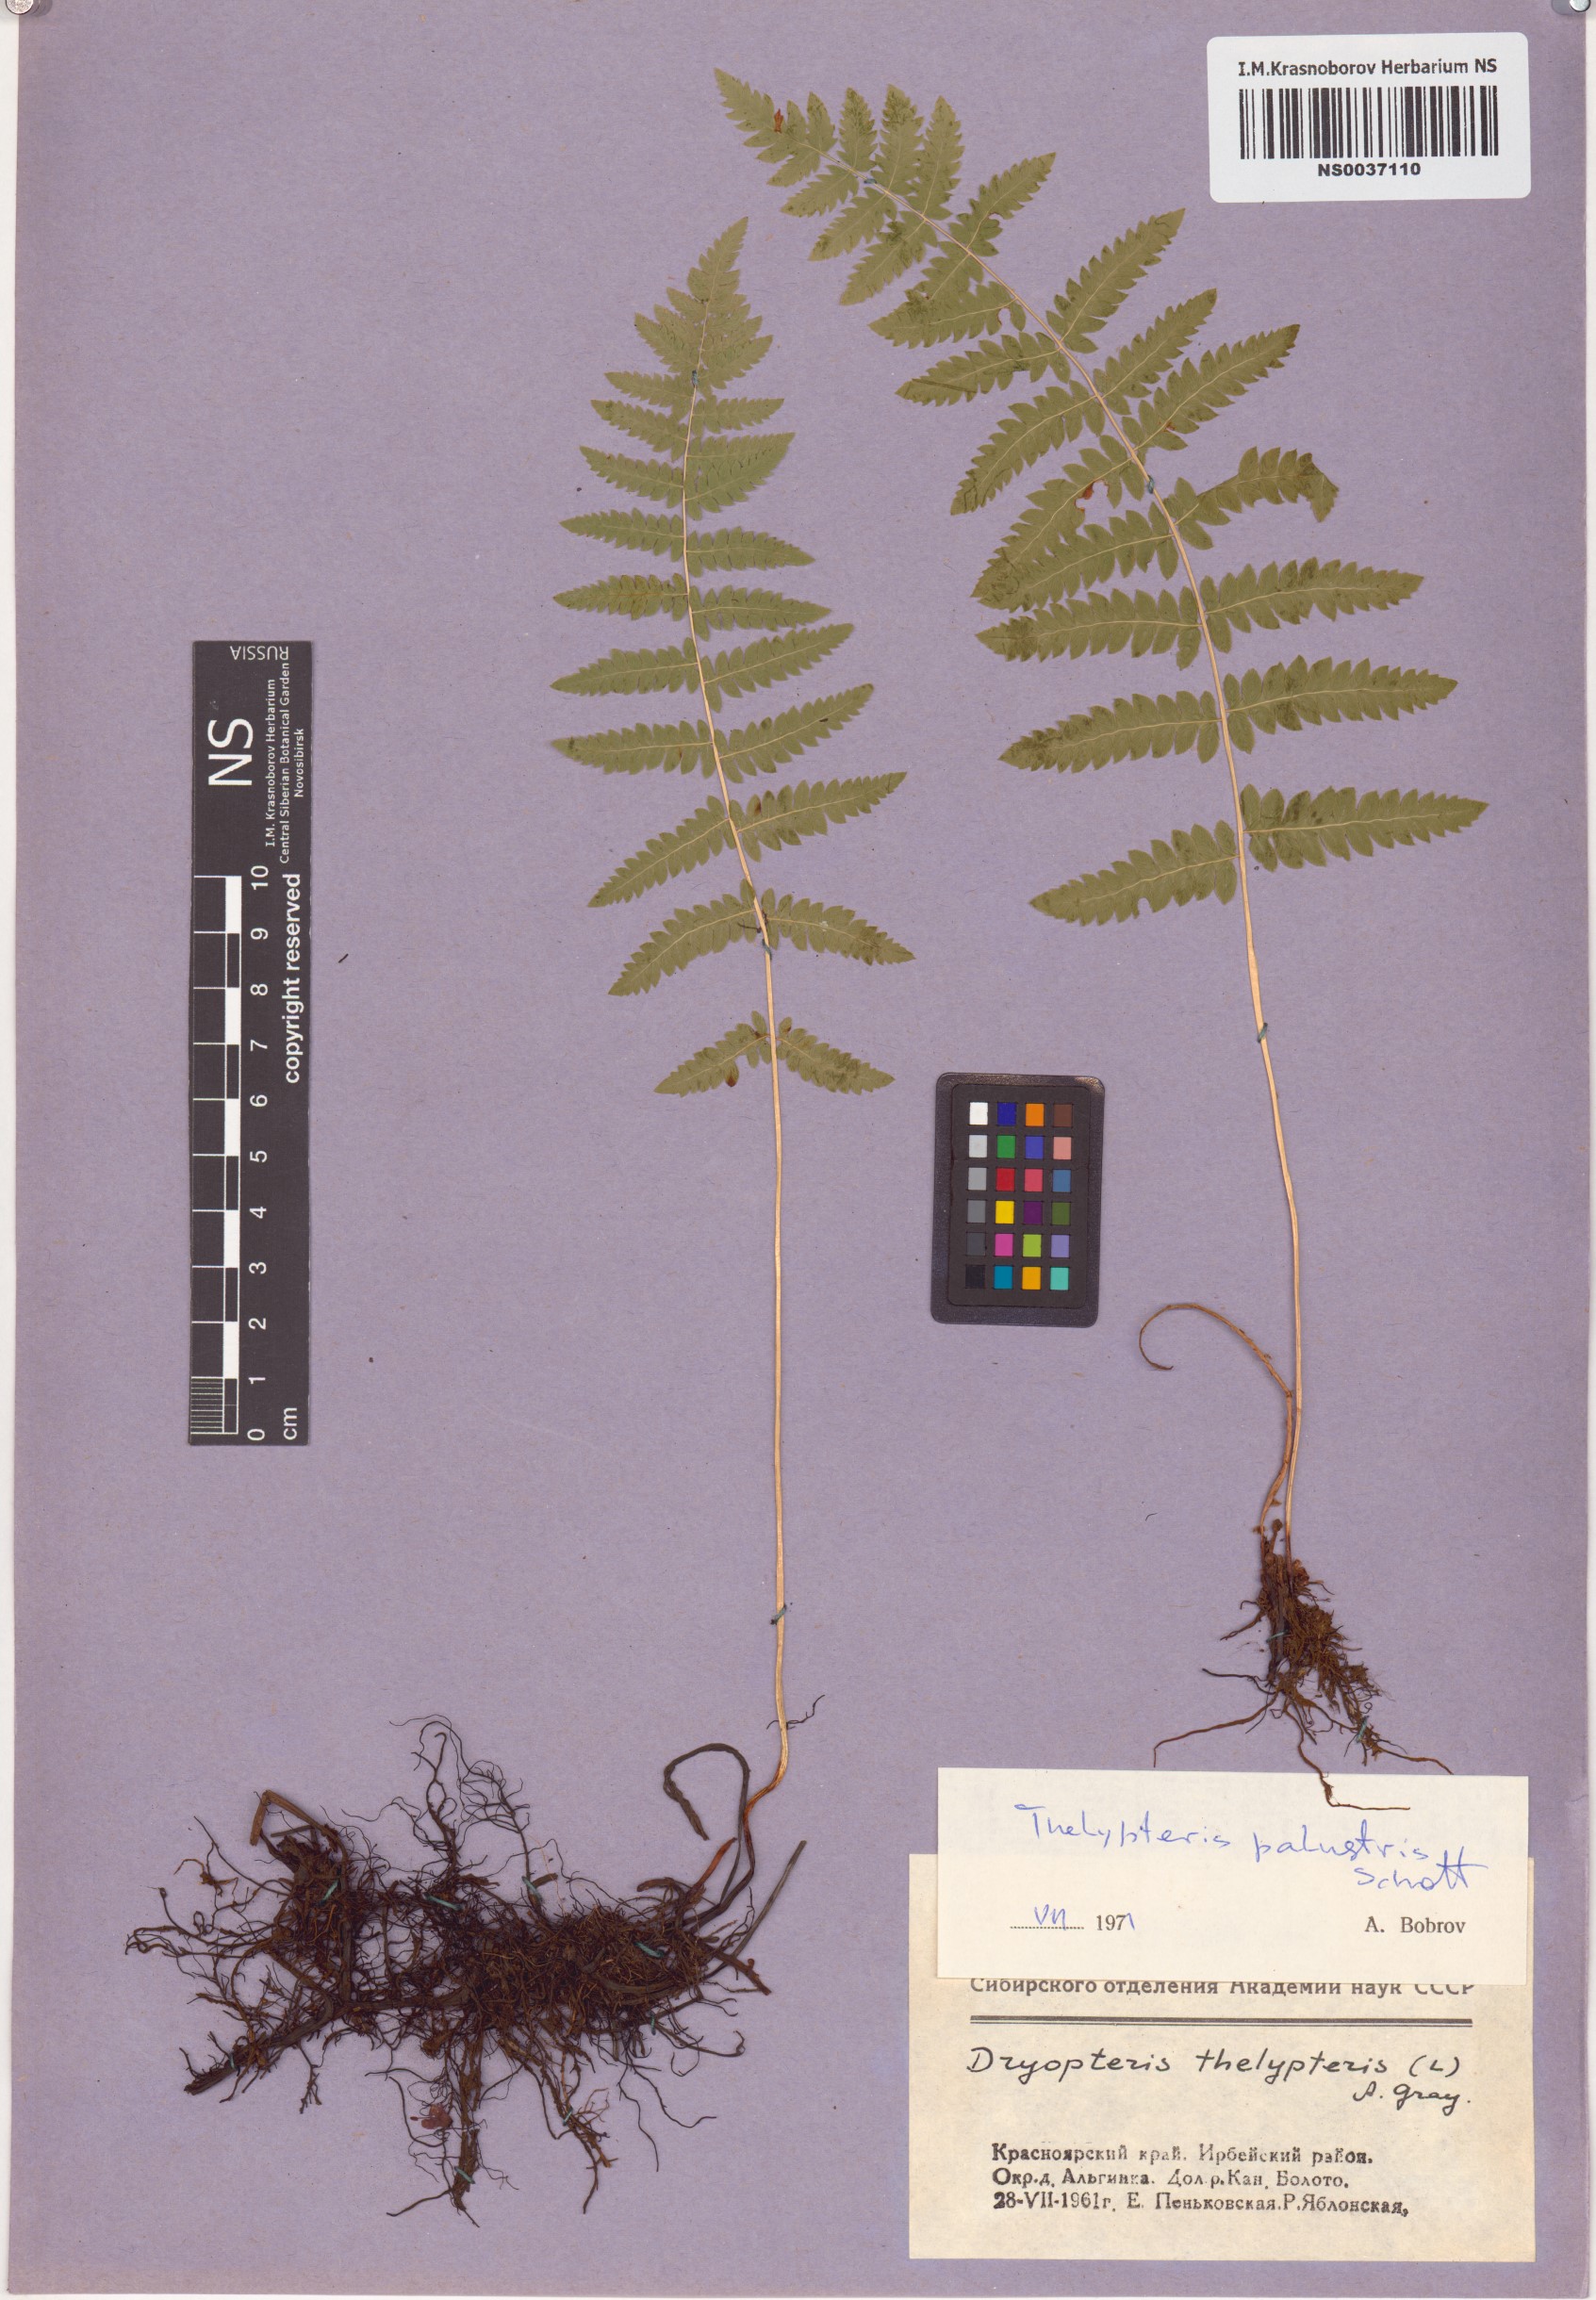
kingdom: Plantae
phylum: Tracheophyta
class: Polypodiopsida
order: Polypodiales
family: Thelypteridaceae
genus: Thelypteris
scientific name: Thelypteris palustris
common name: Marsh fern
